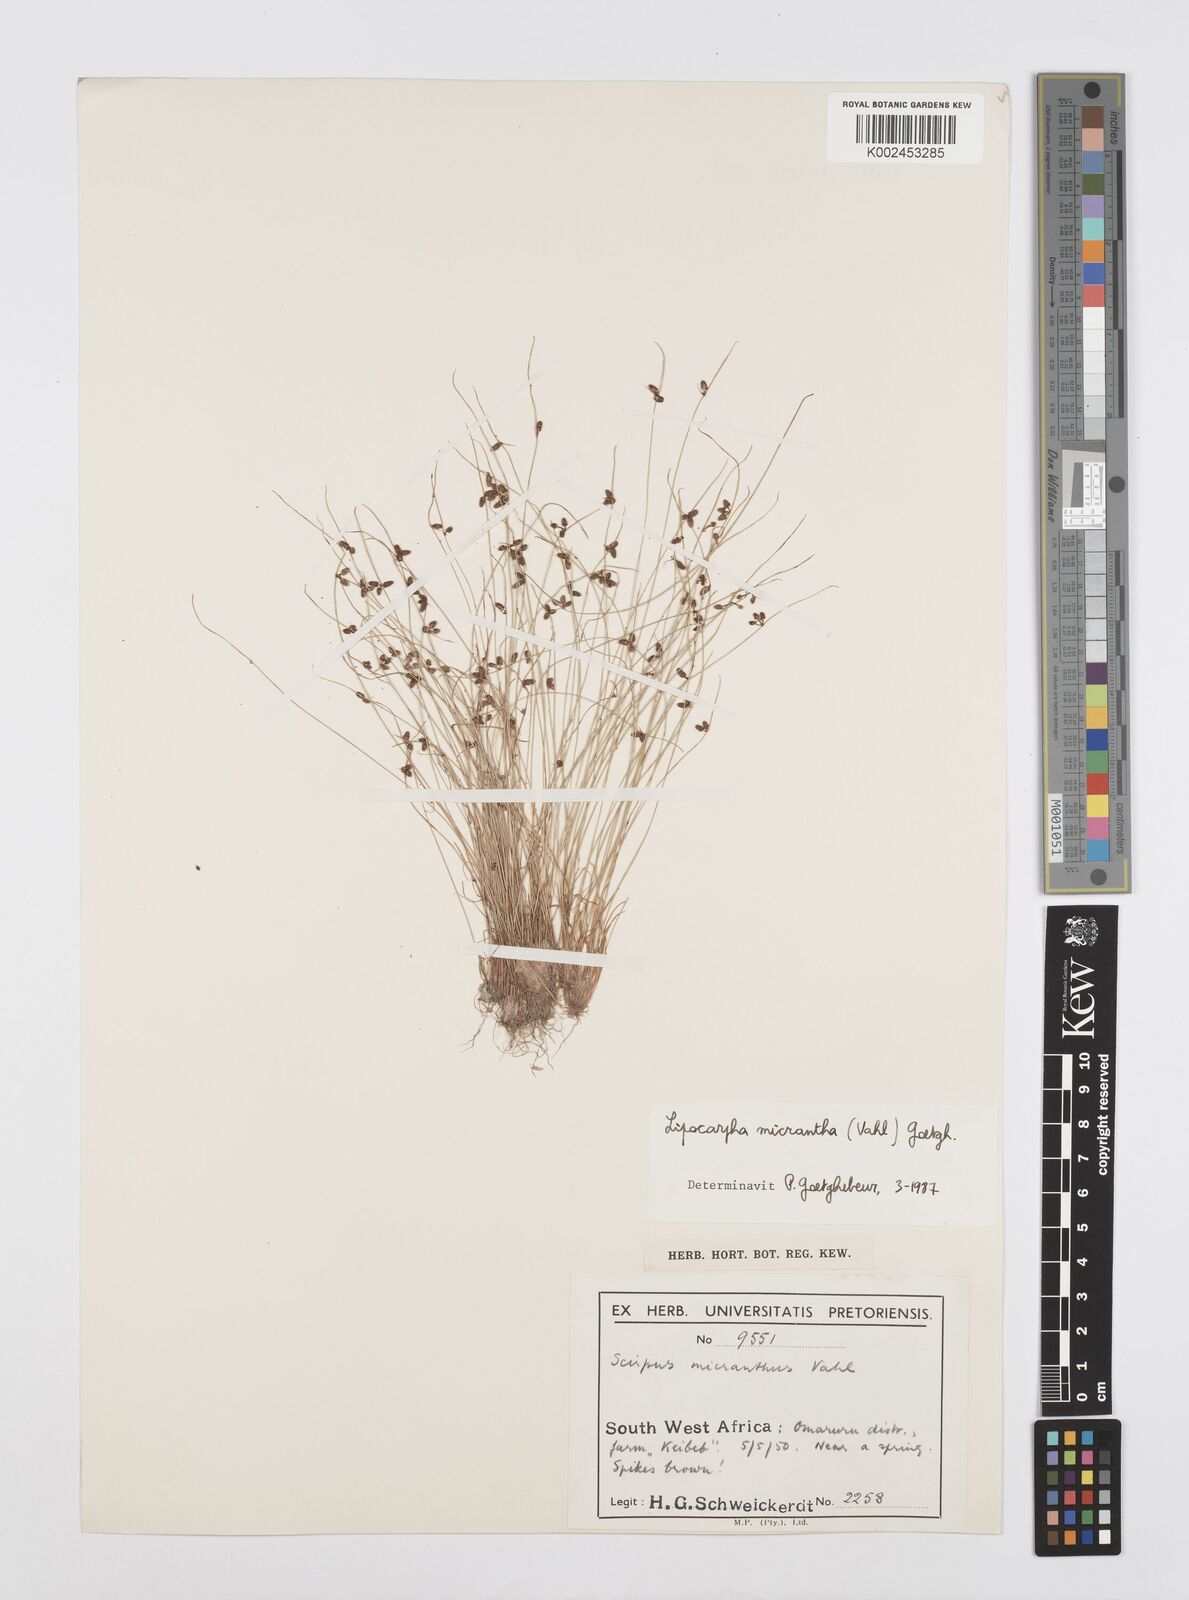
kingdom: Plantae
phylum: Tracheophyta
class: Liliopsida
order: Poales
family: Cyperaceae
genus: Cyperus
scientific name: Cyperus dentatus
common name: Dentate umbrella sedge
